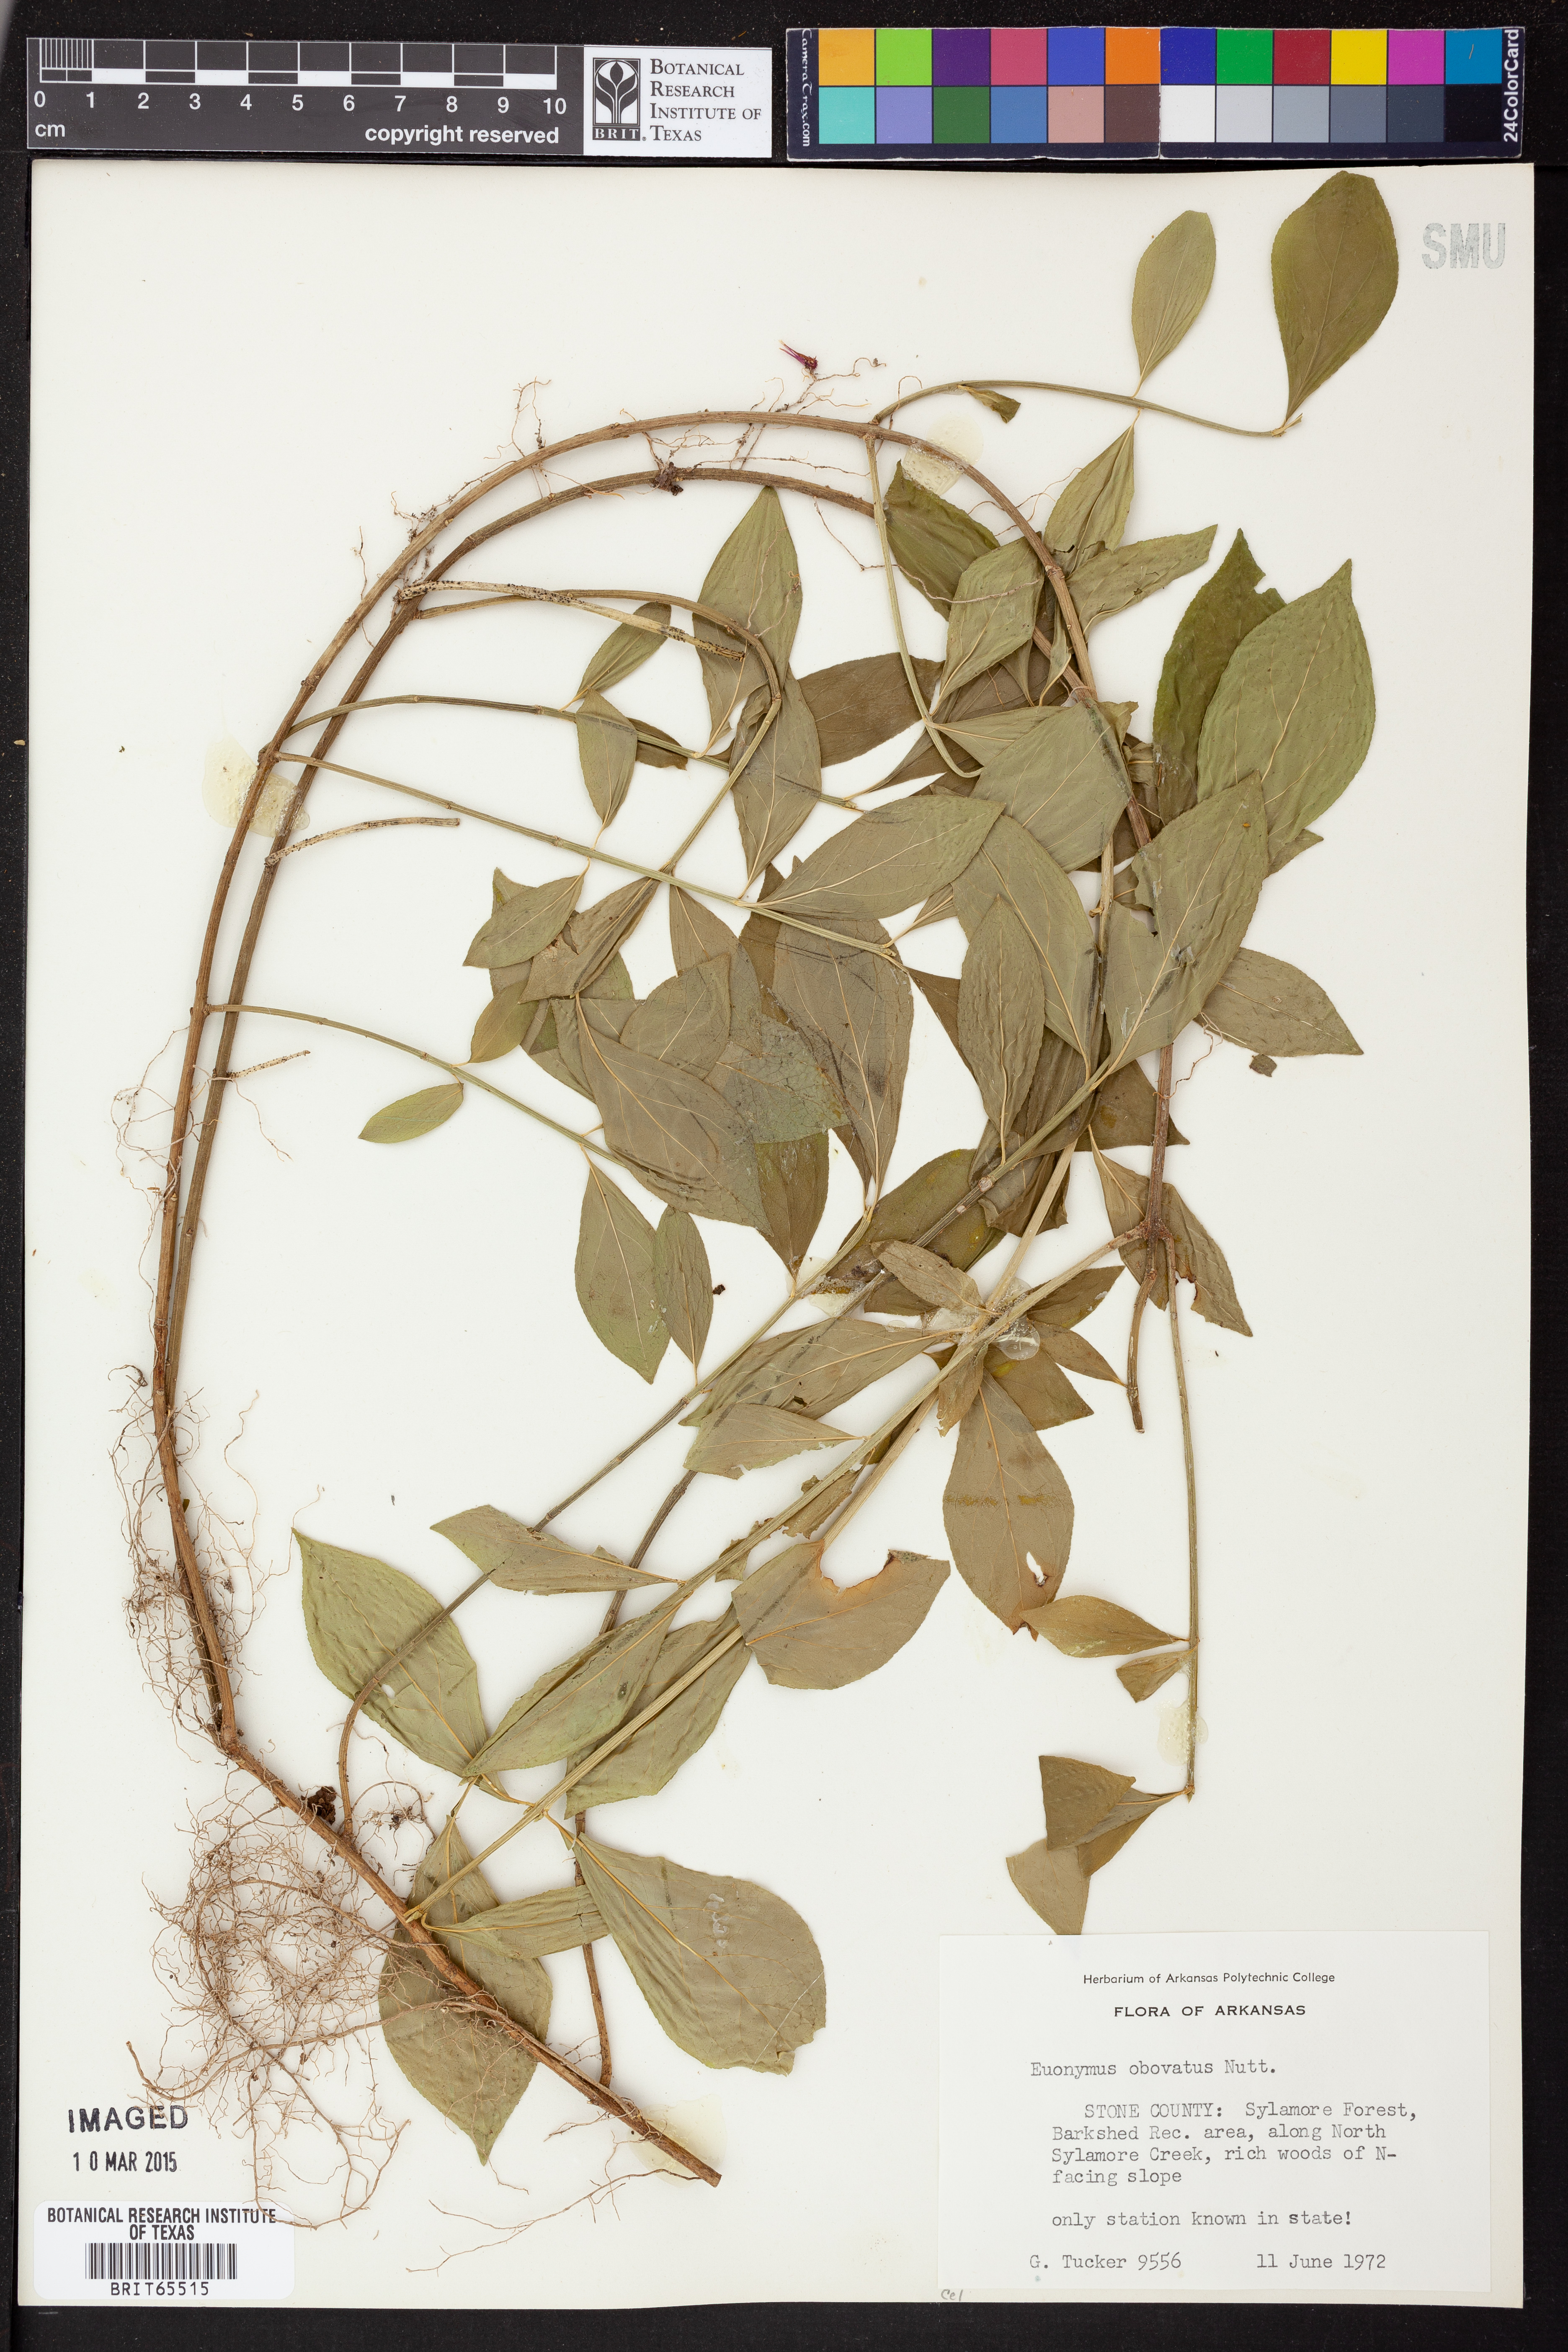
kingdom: Plantae
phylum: Tracheophyta
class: Magnoliopsida
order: Celastrales
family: Celastraceae
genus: Euonymus
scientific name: Euonymus obovatus
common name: Running strawberry-bush
